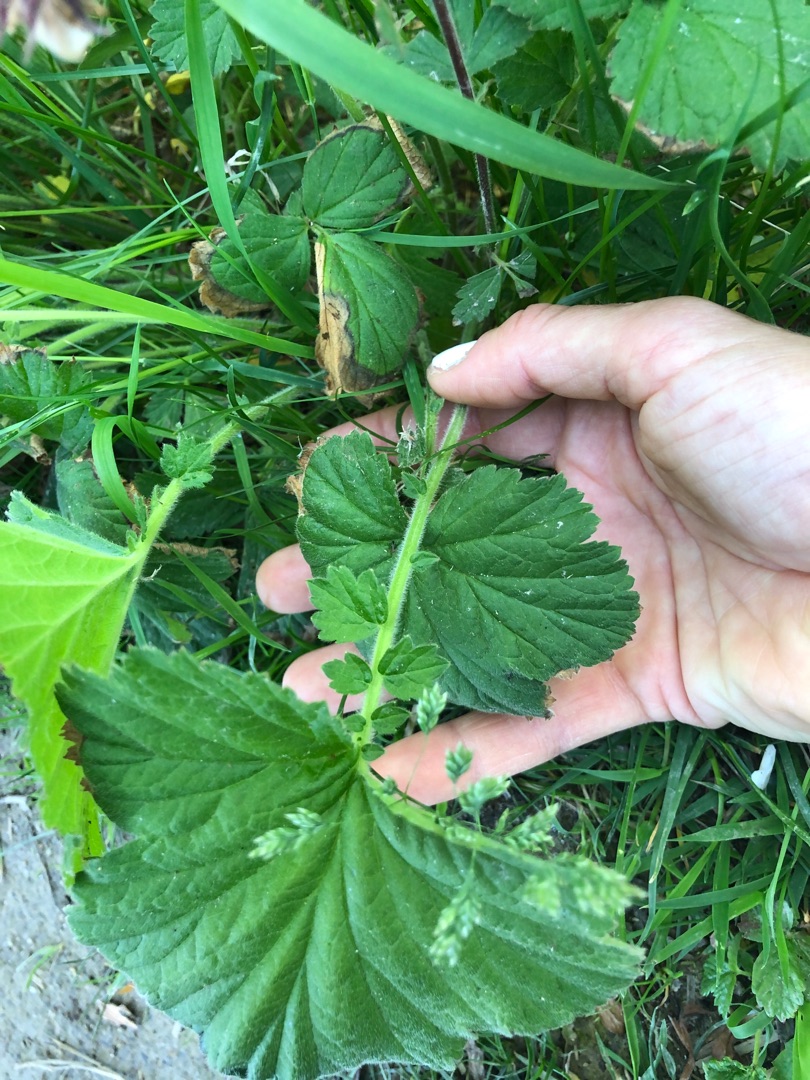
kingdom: Plantae
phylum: Tracheophyta
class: Magnoliopsida
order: Rosales
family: Rosaceae
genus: Geum
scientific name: Geum rivale
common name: Eng-nellikerod
